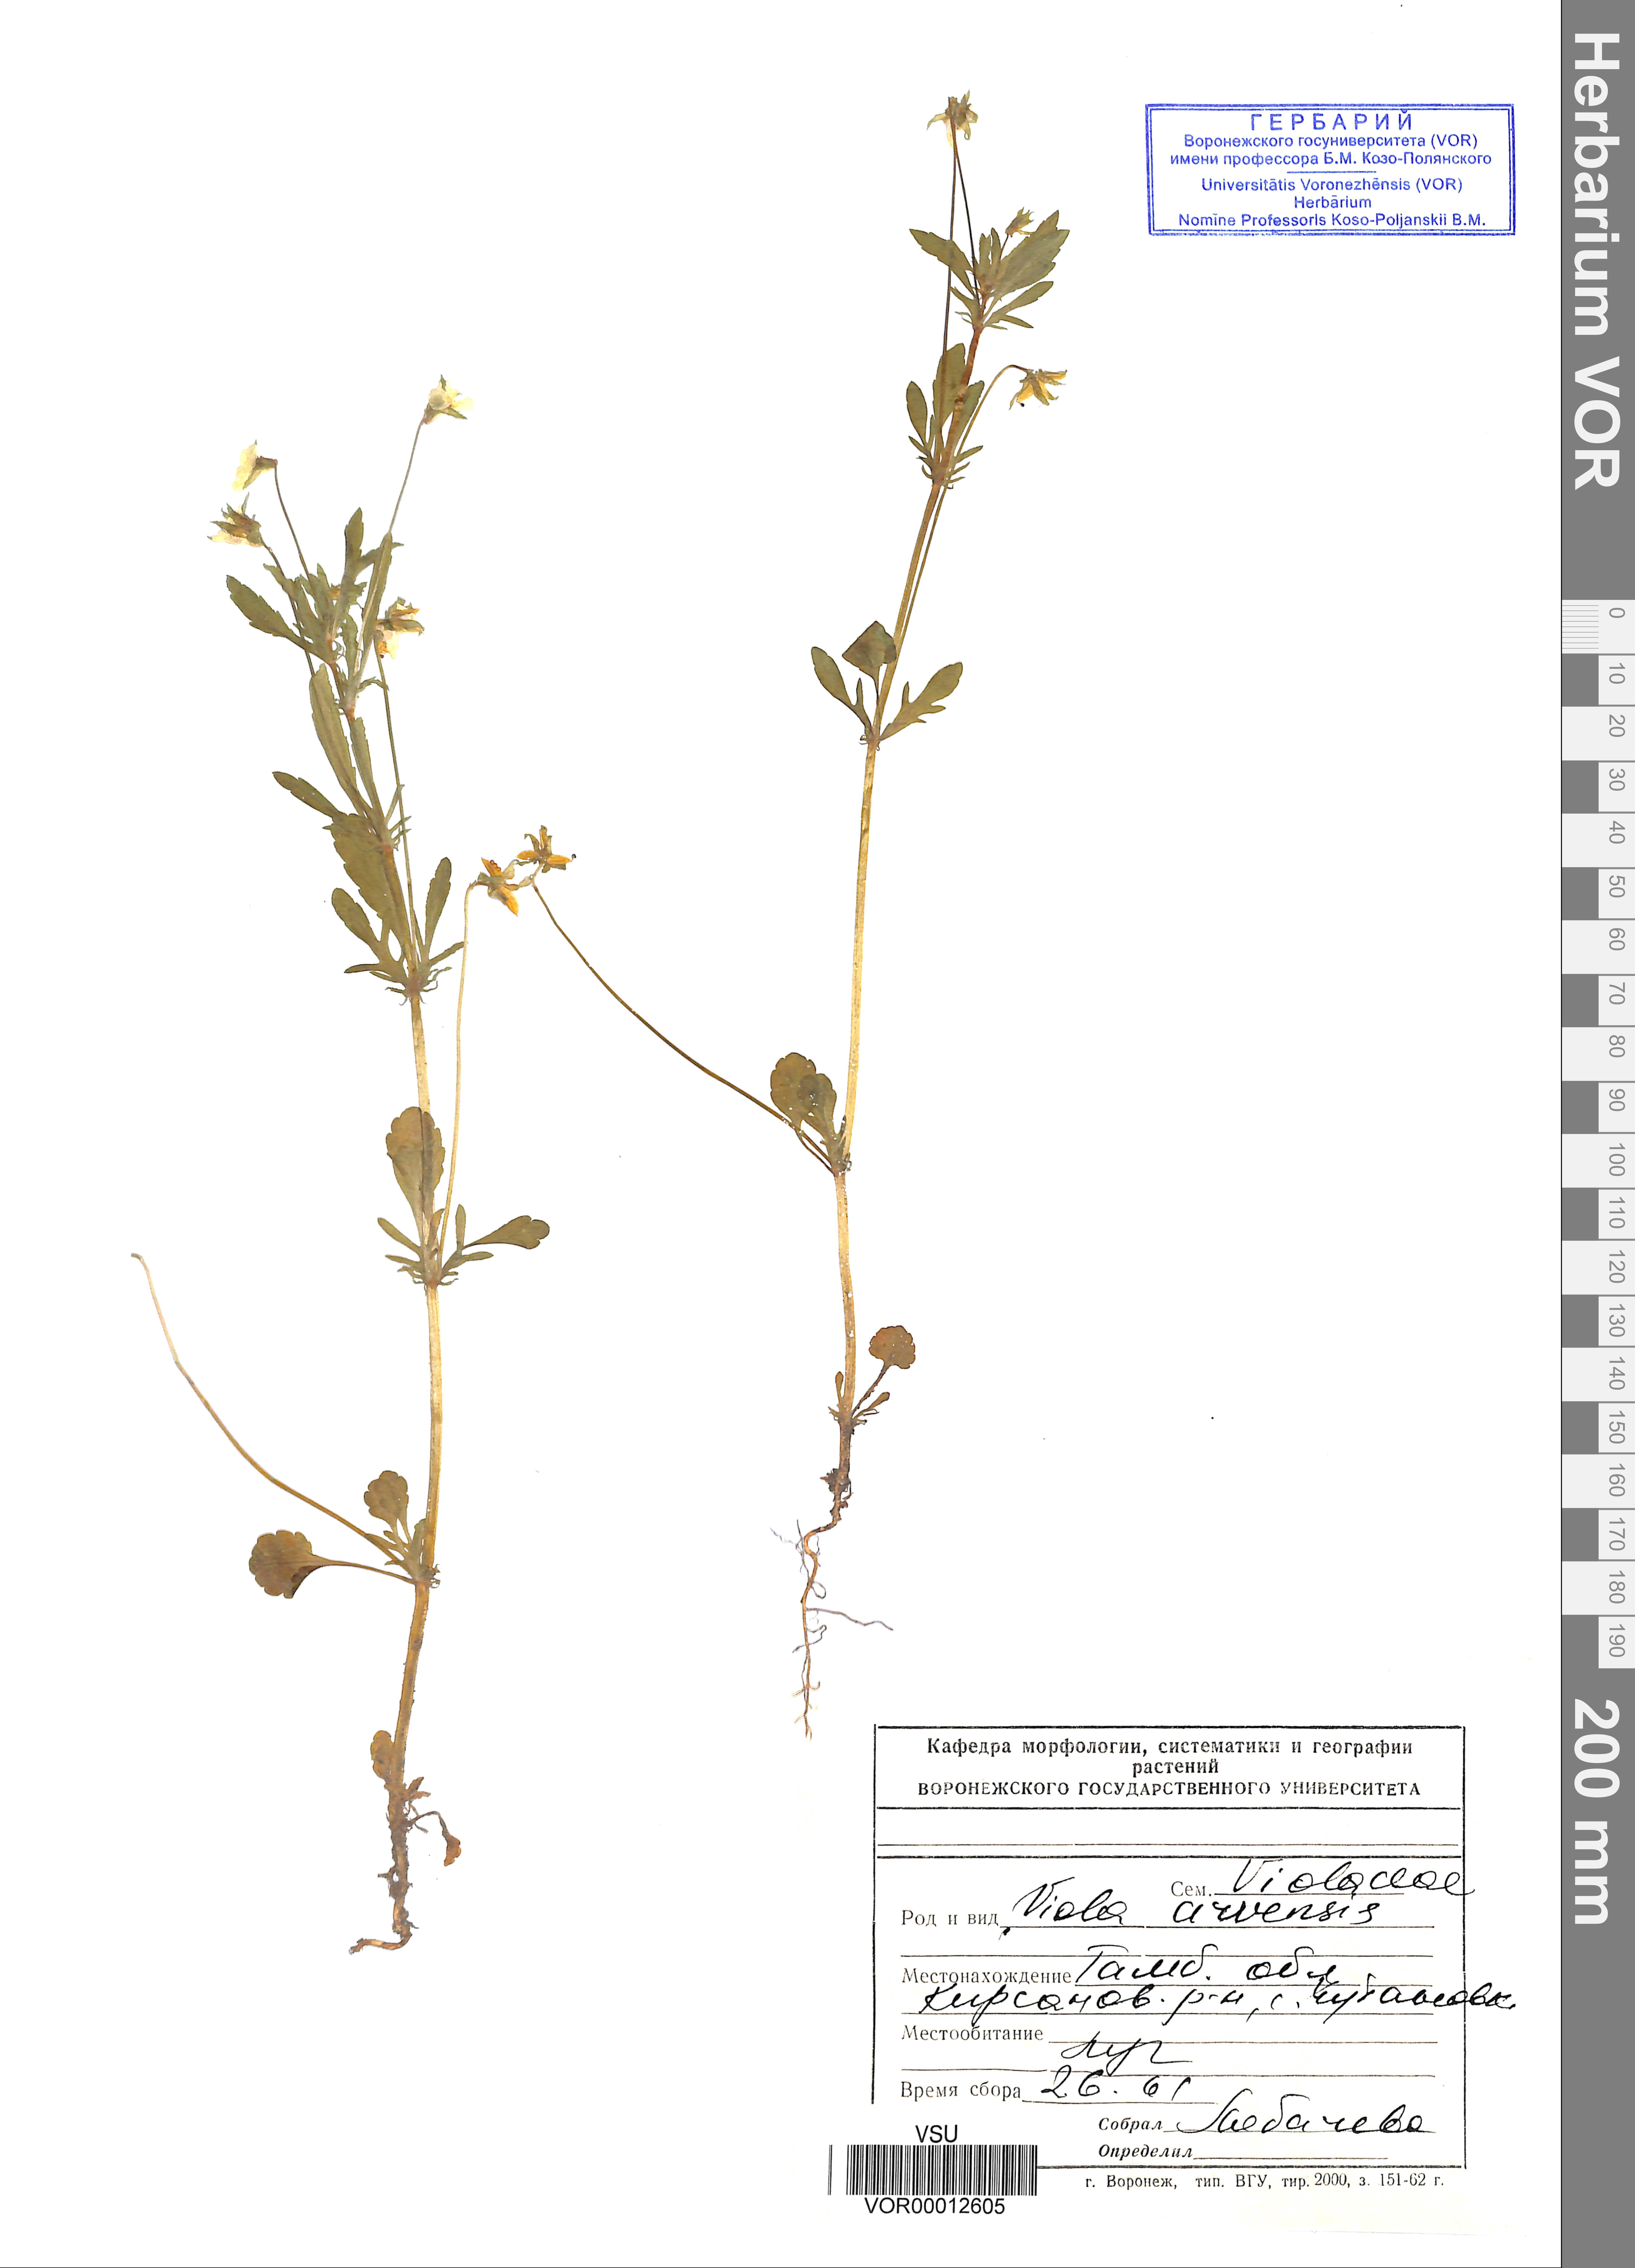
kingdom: Plantae
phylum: Tracheophyta
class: Magnoliopsida
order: Malpighiales
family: Violaceae
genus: Viola
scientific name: Viola arvensis
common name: Field pansy
